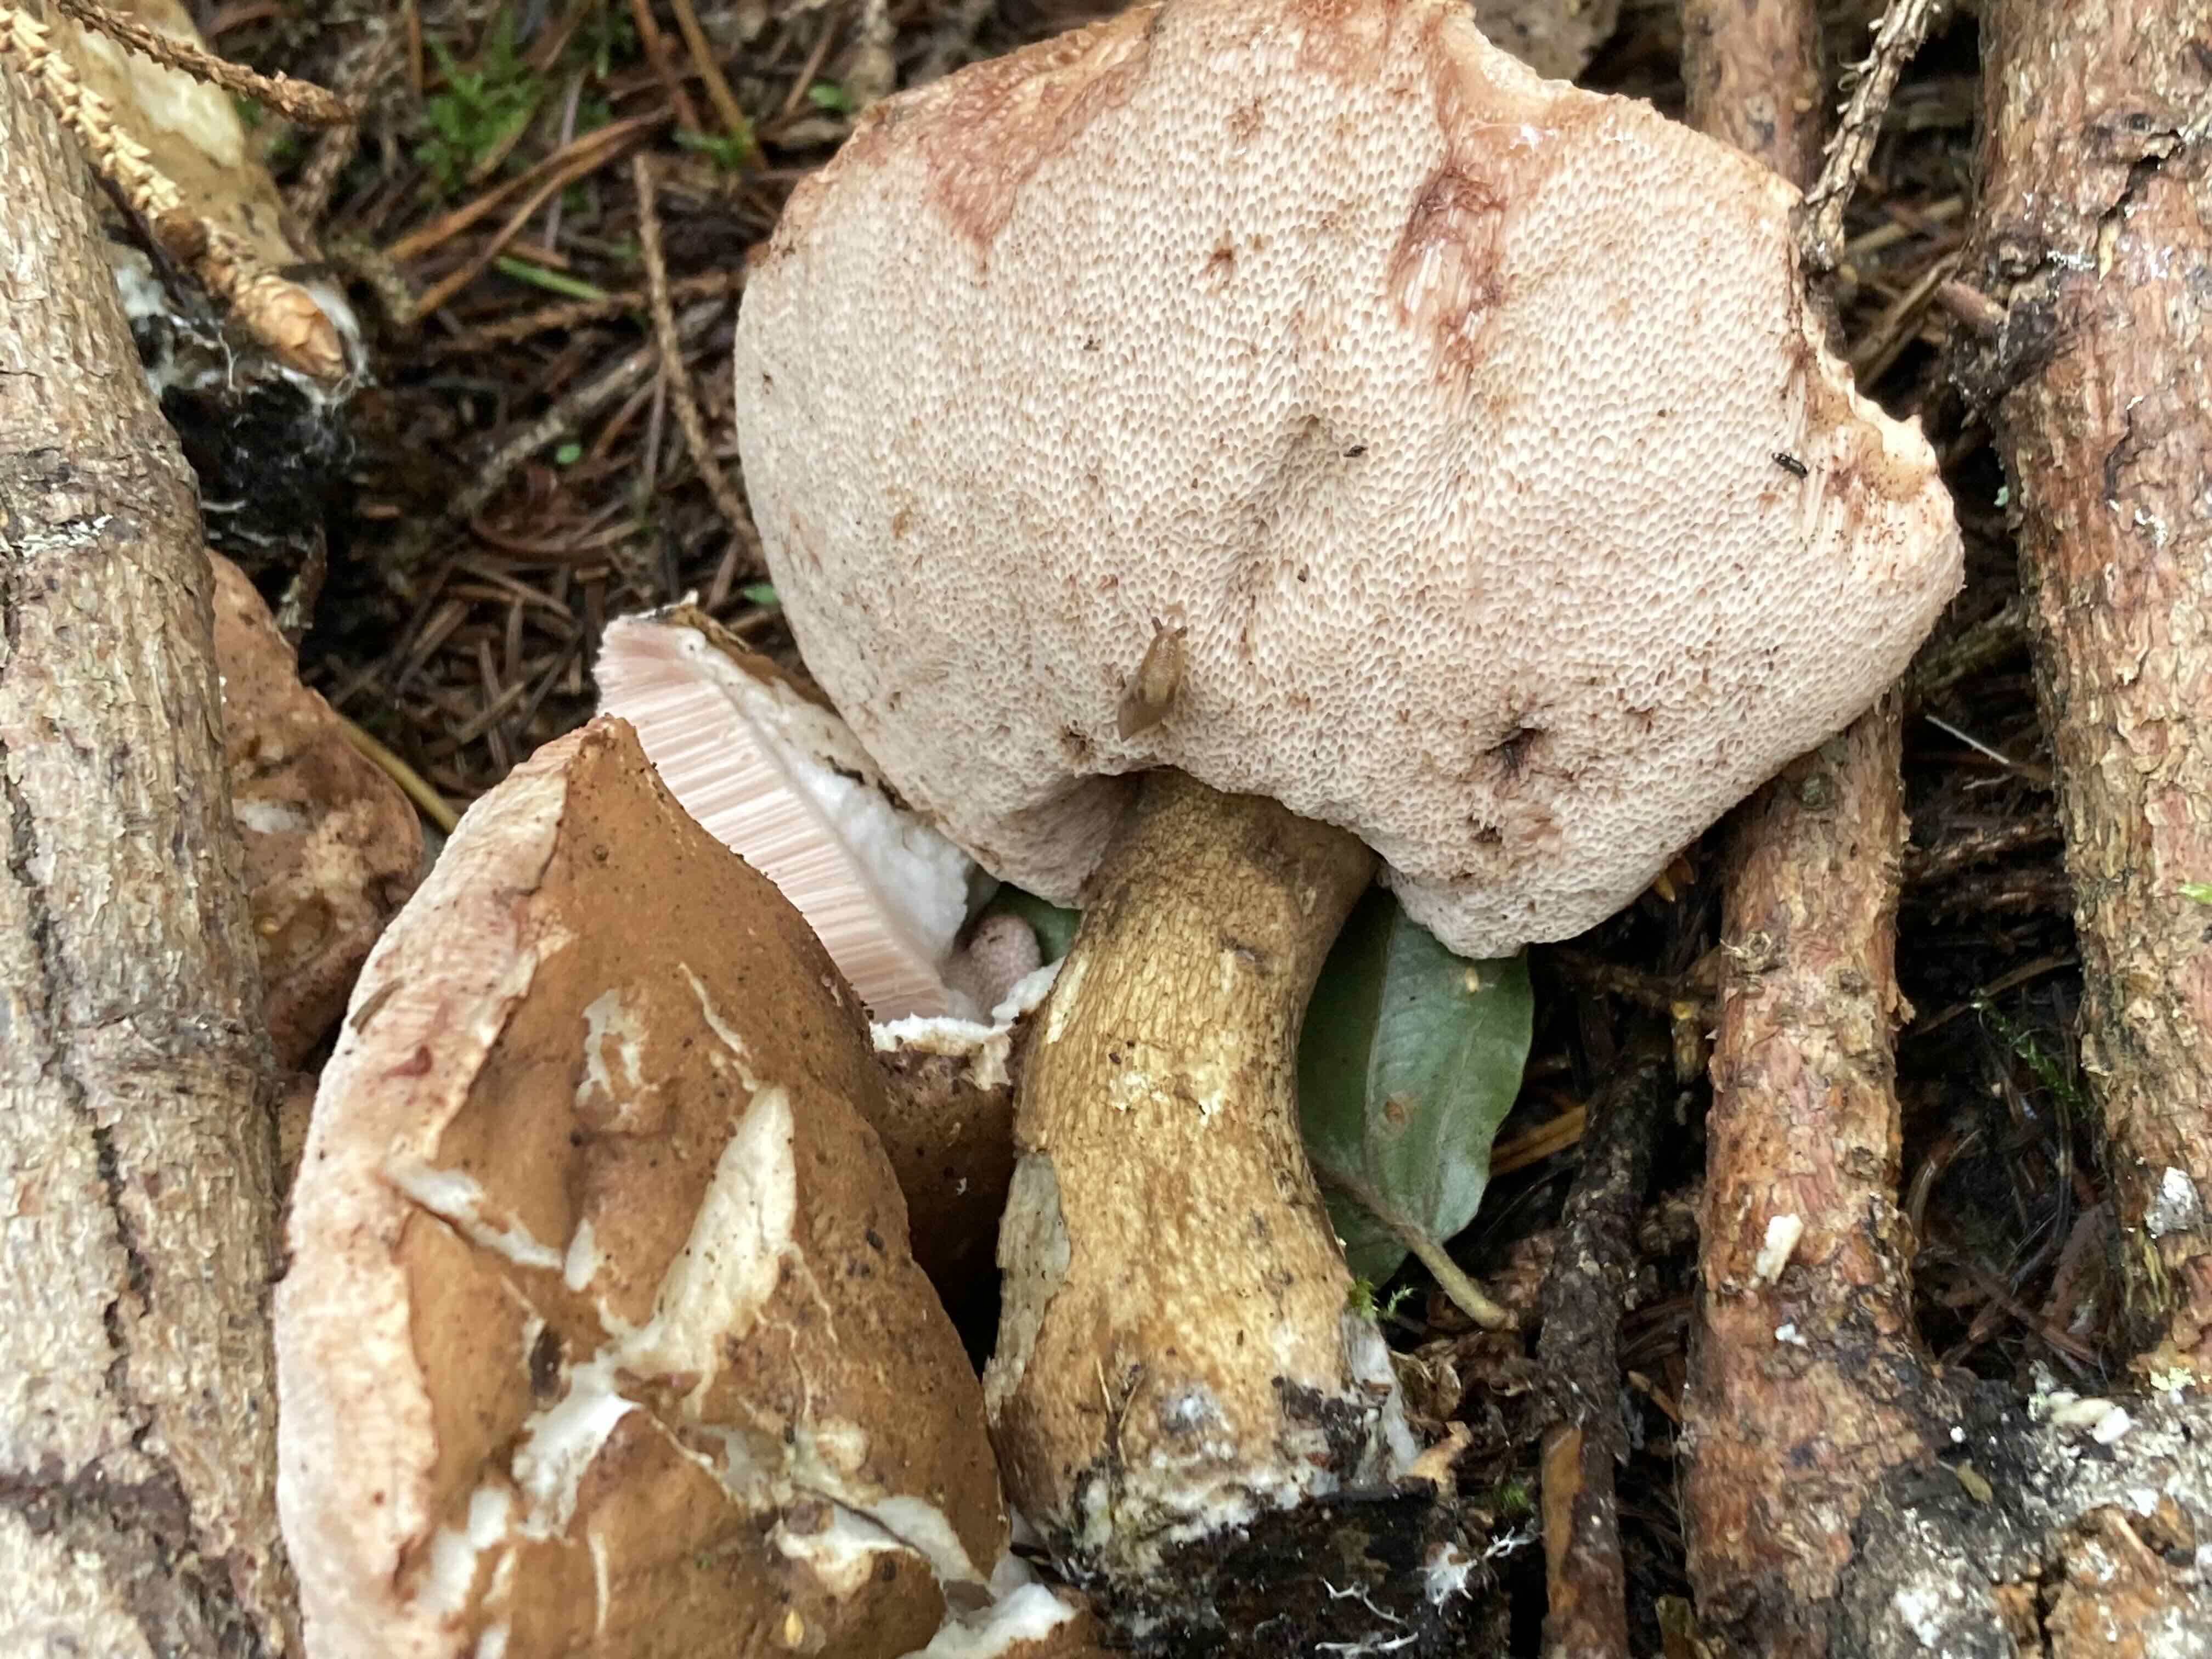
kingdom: Fungi
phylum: Basidiomycota
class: Agaricomycetes
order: Boletales
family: Boletaceae
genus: Tylopilus
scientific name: Tylopilus felleus
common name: galderørhat
